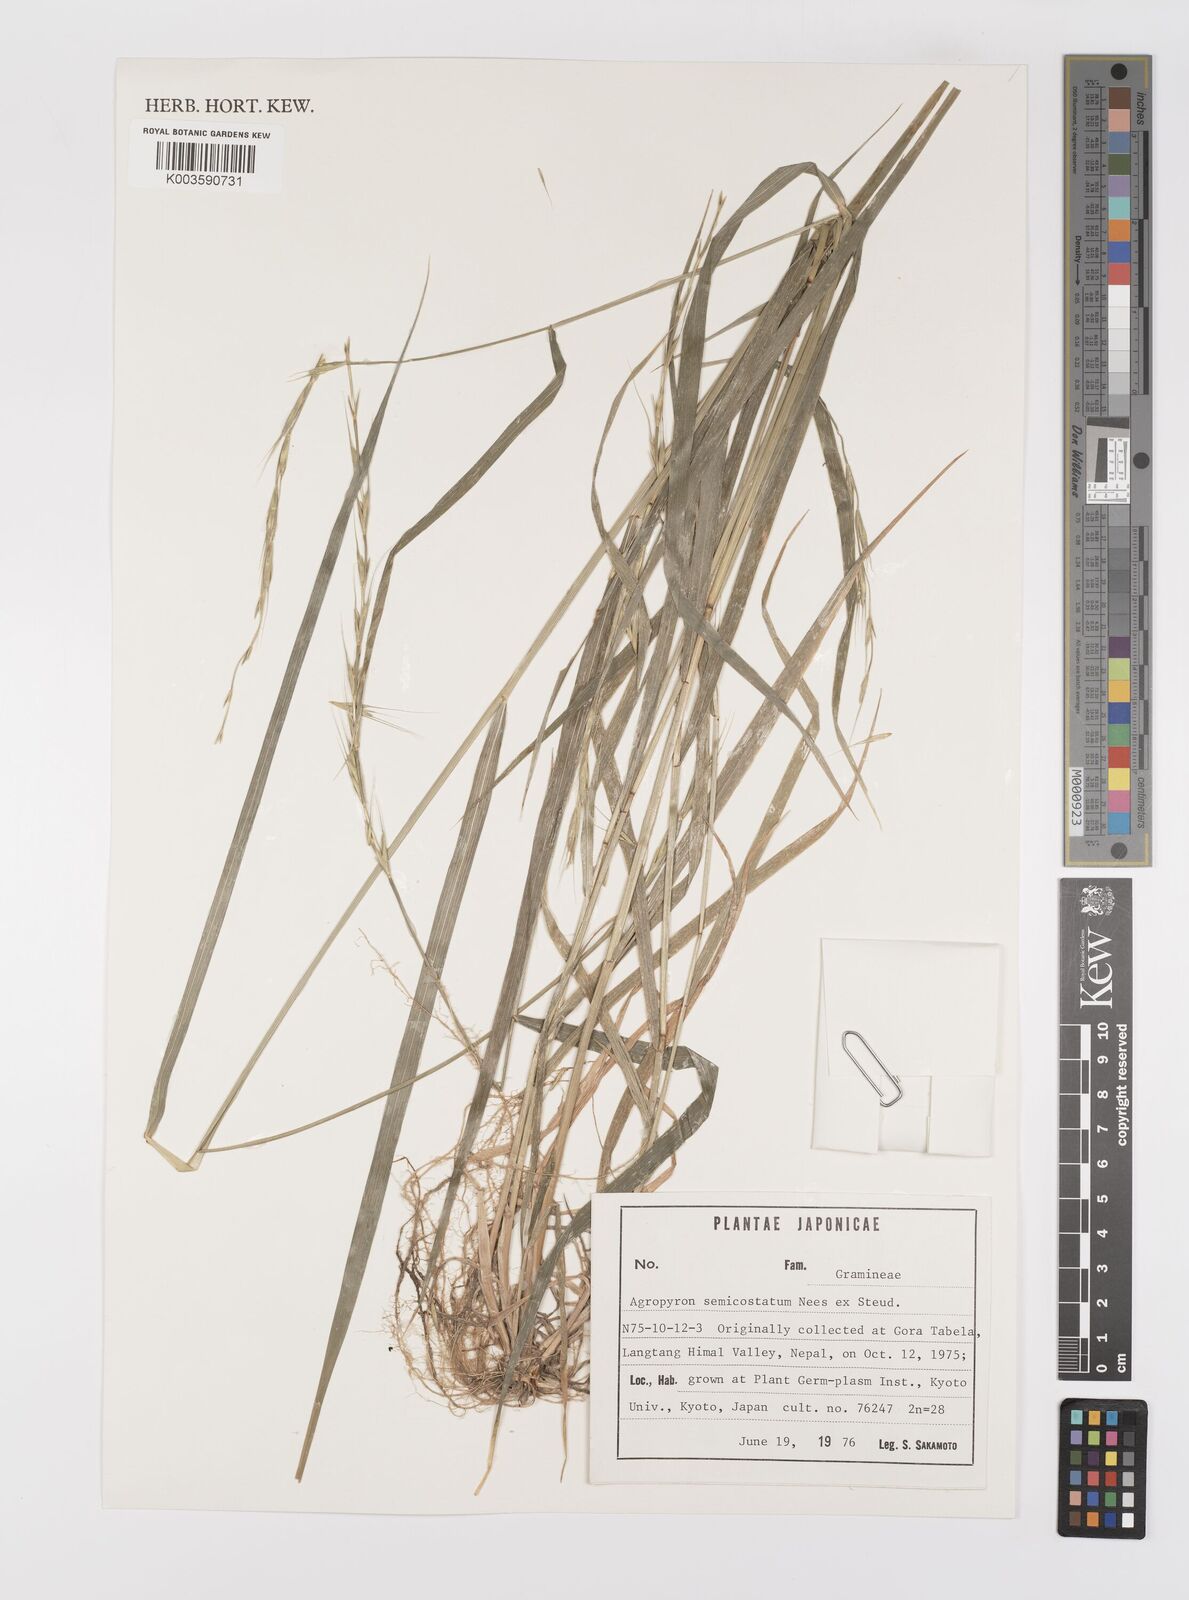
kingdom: Plantae
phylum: Tracheophyta
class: Liliopsida
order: Poales
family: Poaceae
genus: Elymus
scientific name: Elymus semicostatus
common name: Drooping wildrye
